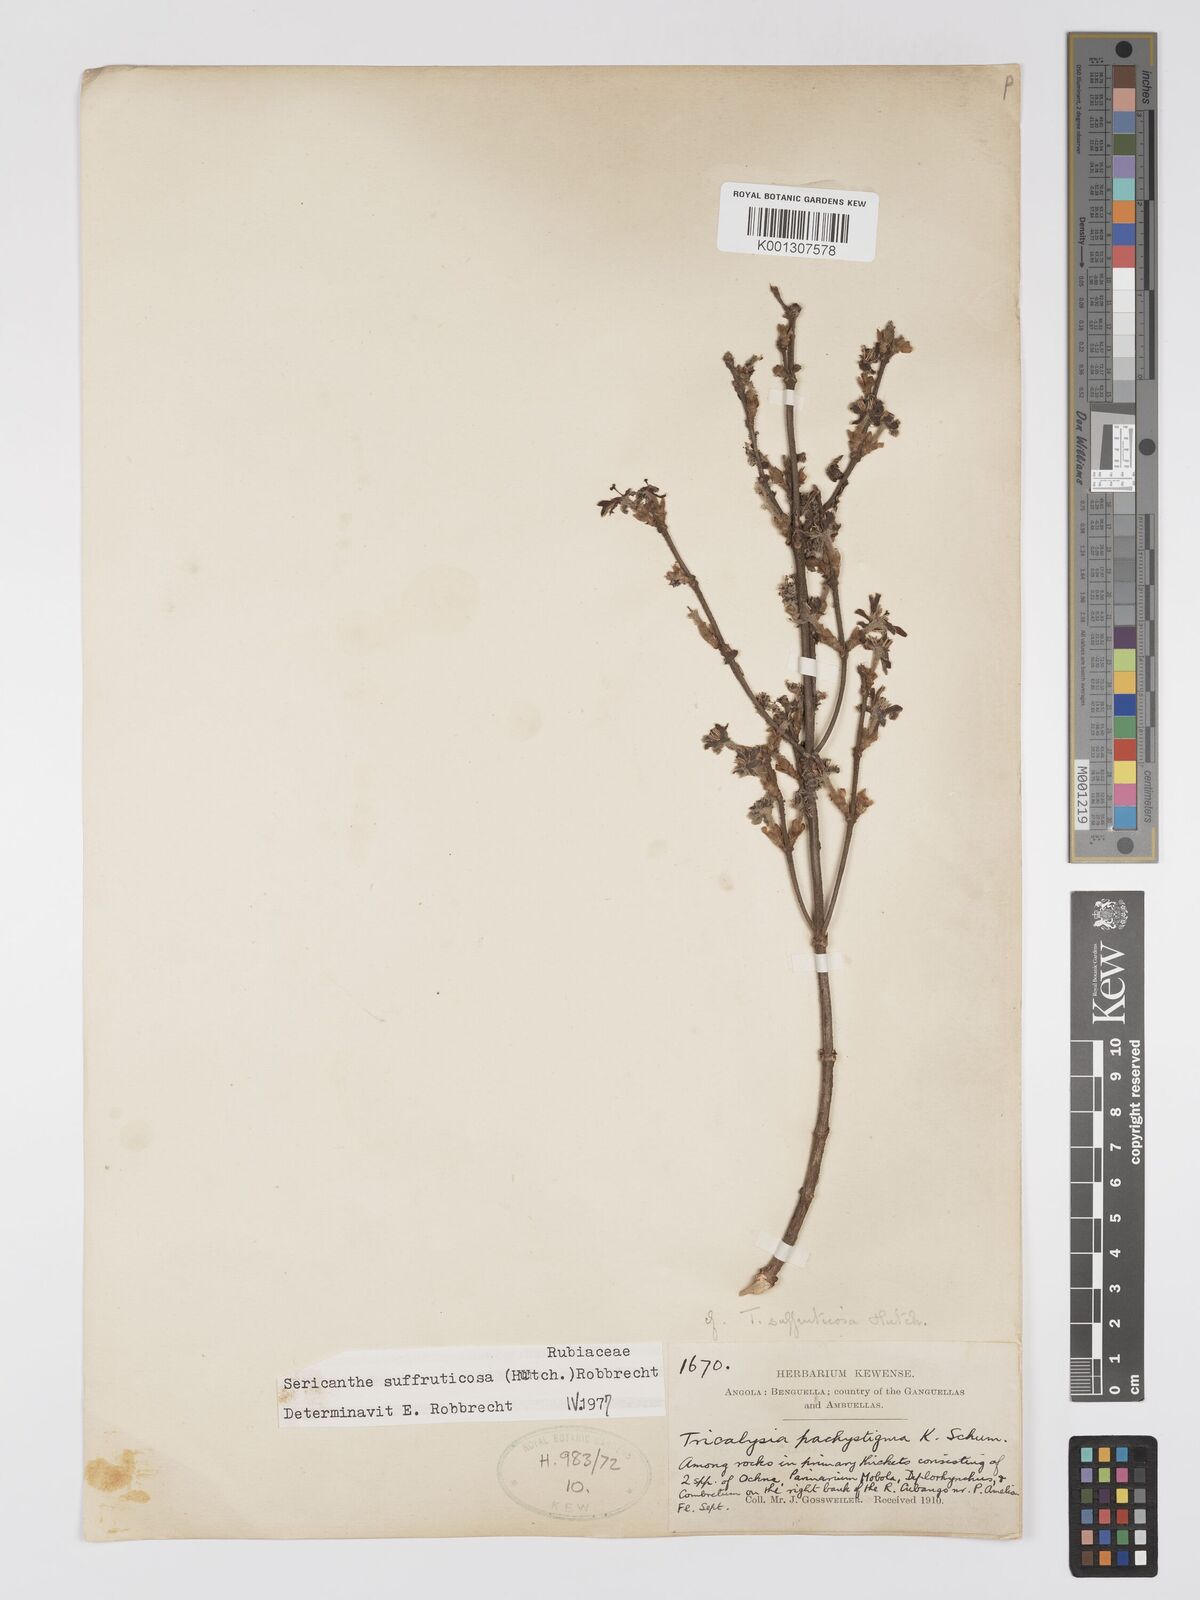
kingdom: Plantae
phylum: Tracheophyta
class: Magnoliopsida
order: Gentianales
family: Rubiaceae
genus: Sericanthe
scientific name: Sericanthe suffruticosa
